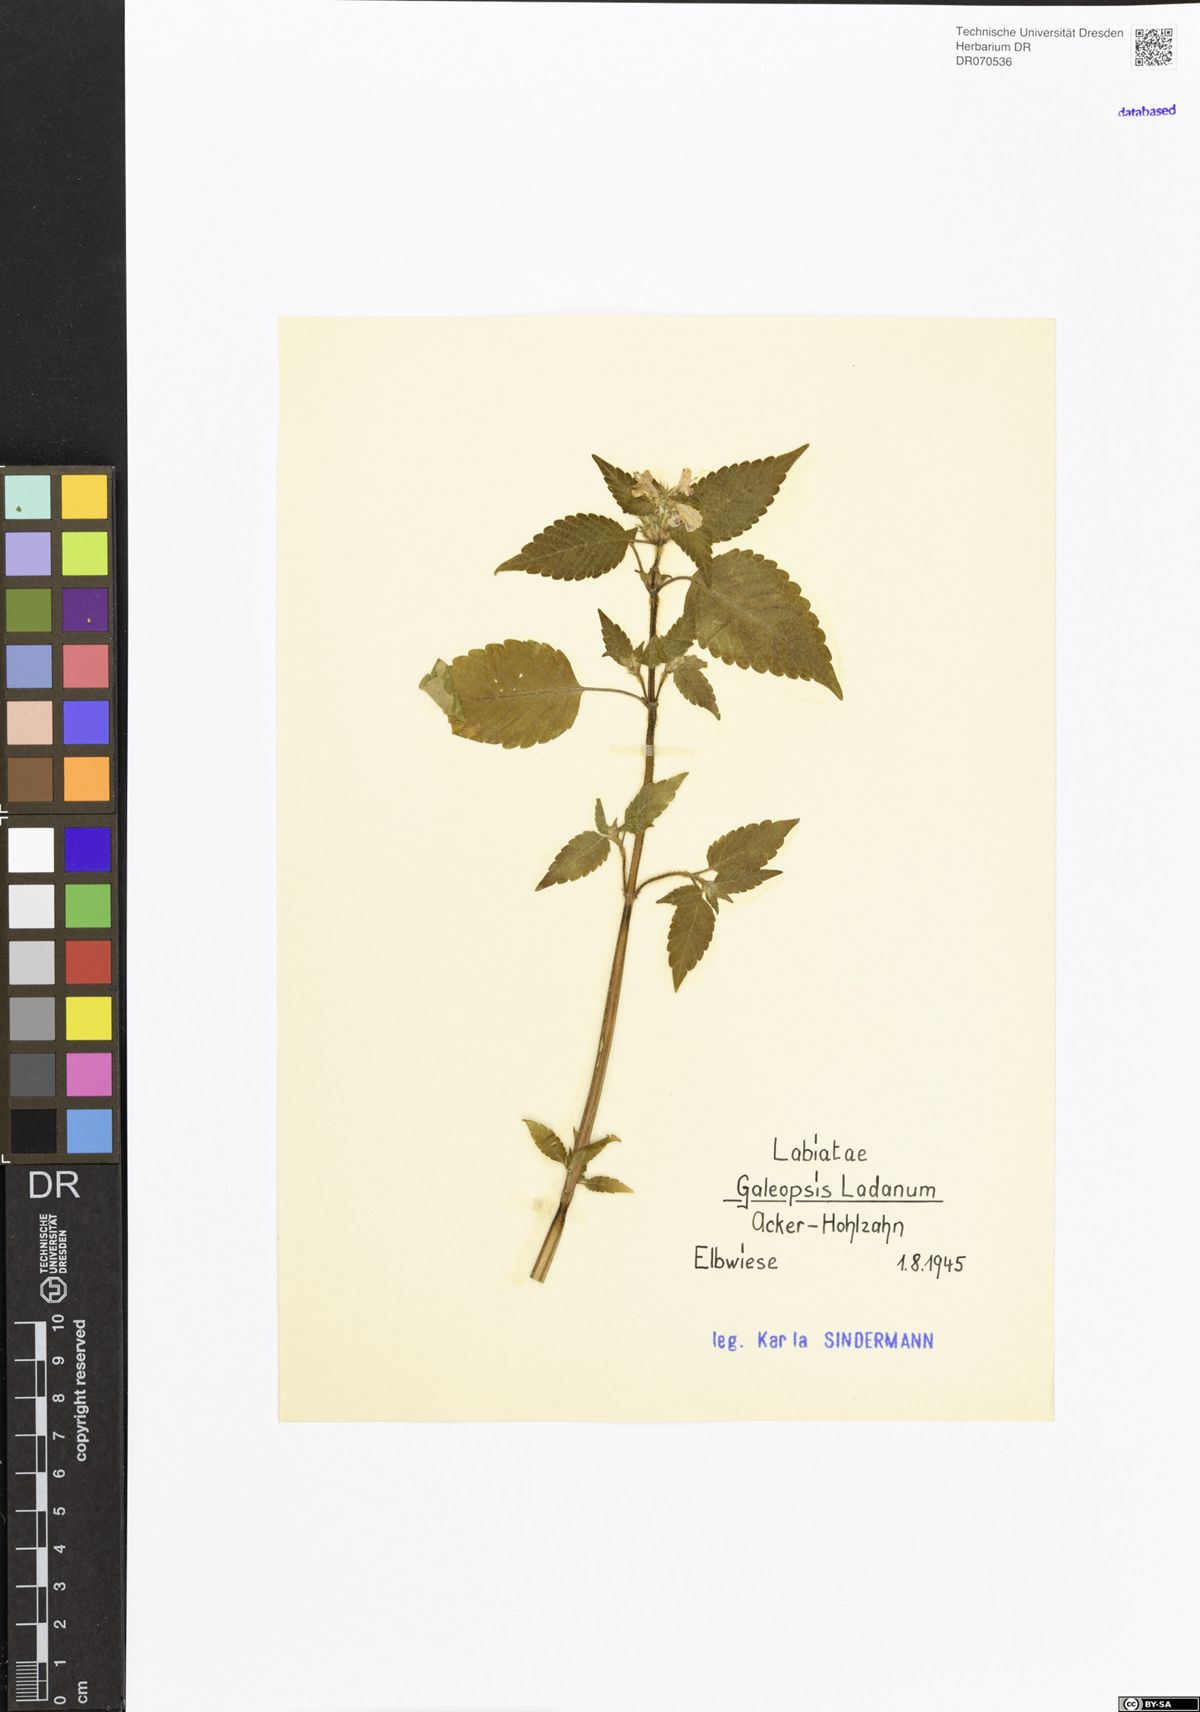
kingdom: Plantae
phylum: Tracheophyta
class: Magnoliopsida
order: Lamiales
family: Lamiaceae
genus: Galeopsis
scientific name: Galeopsis ladanum
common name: Broad-leaved hemp-nettle
